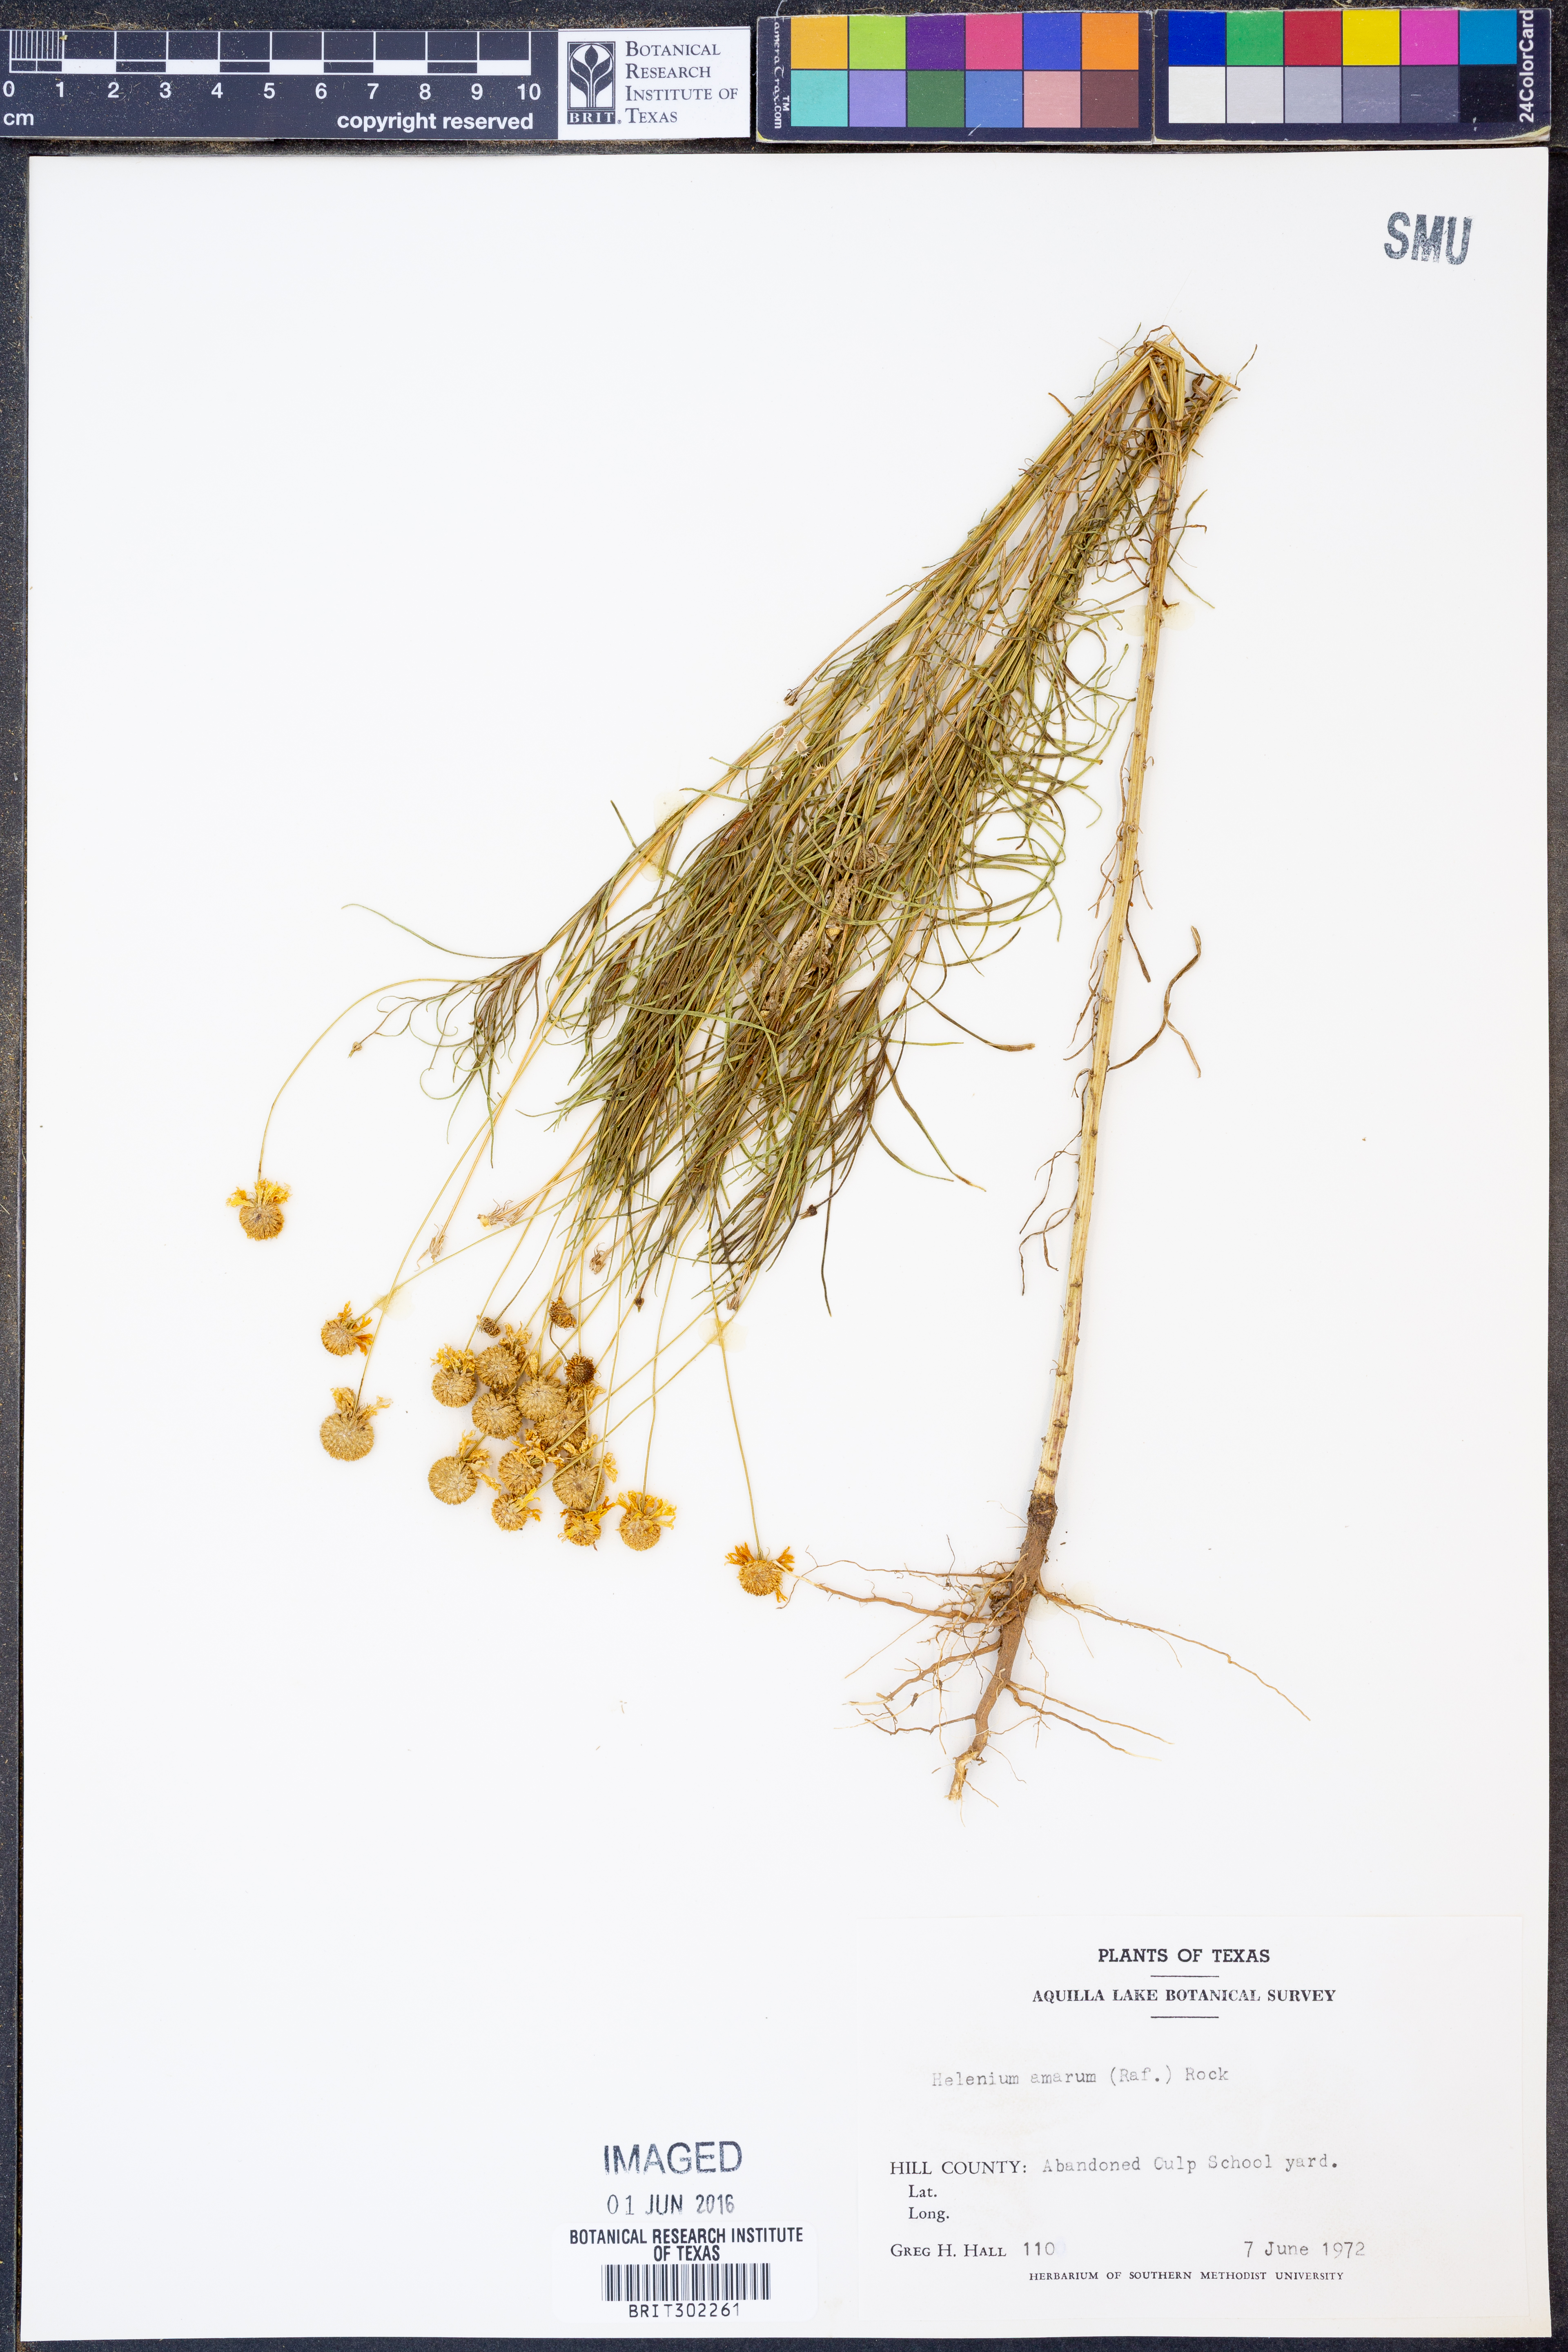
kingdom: Plantae
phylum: Tracheophyta
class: Magnoliopsida
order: Asterales
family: Asteraceae
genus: Helenium
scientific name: Helenium amarum
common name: Bitter sneezeweed
